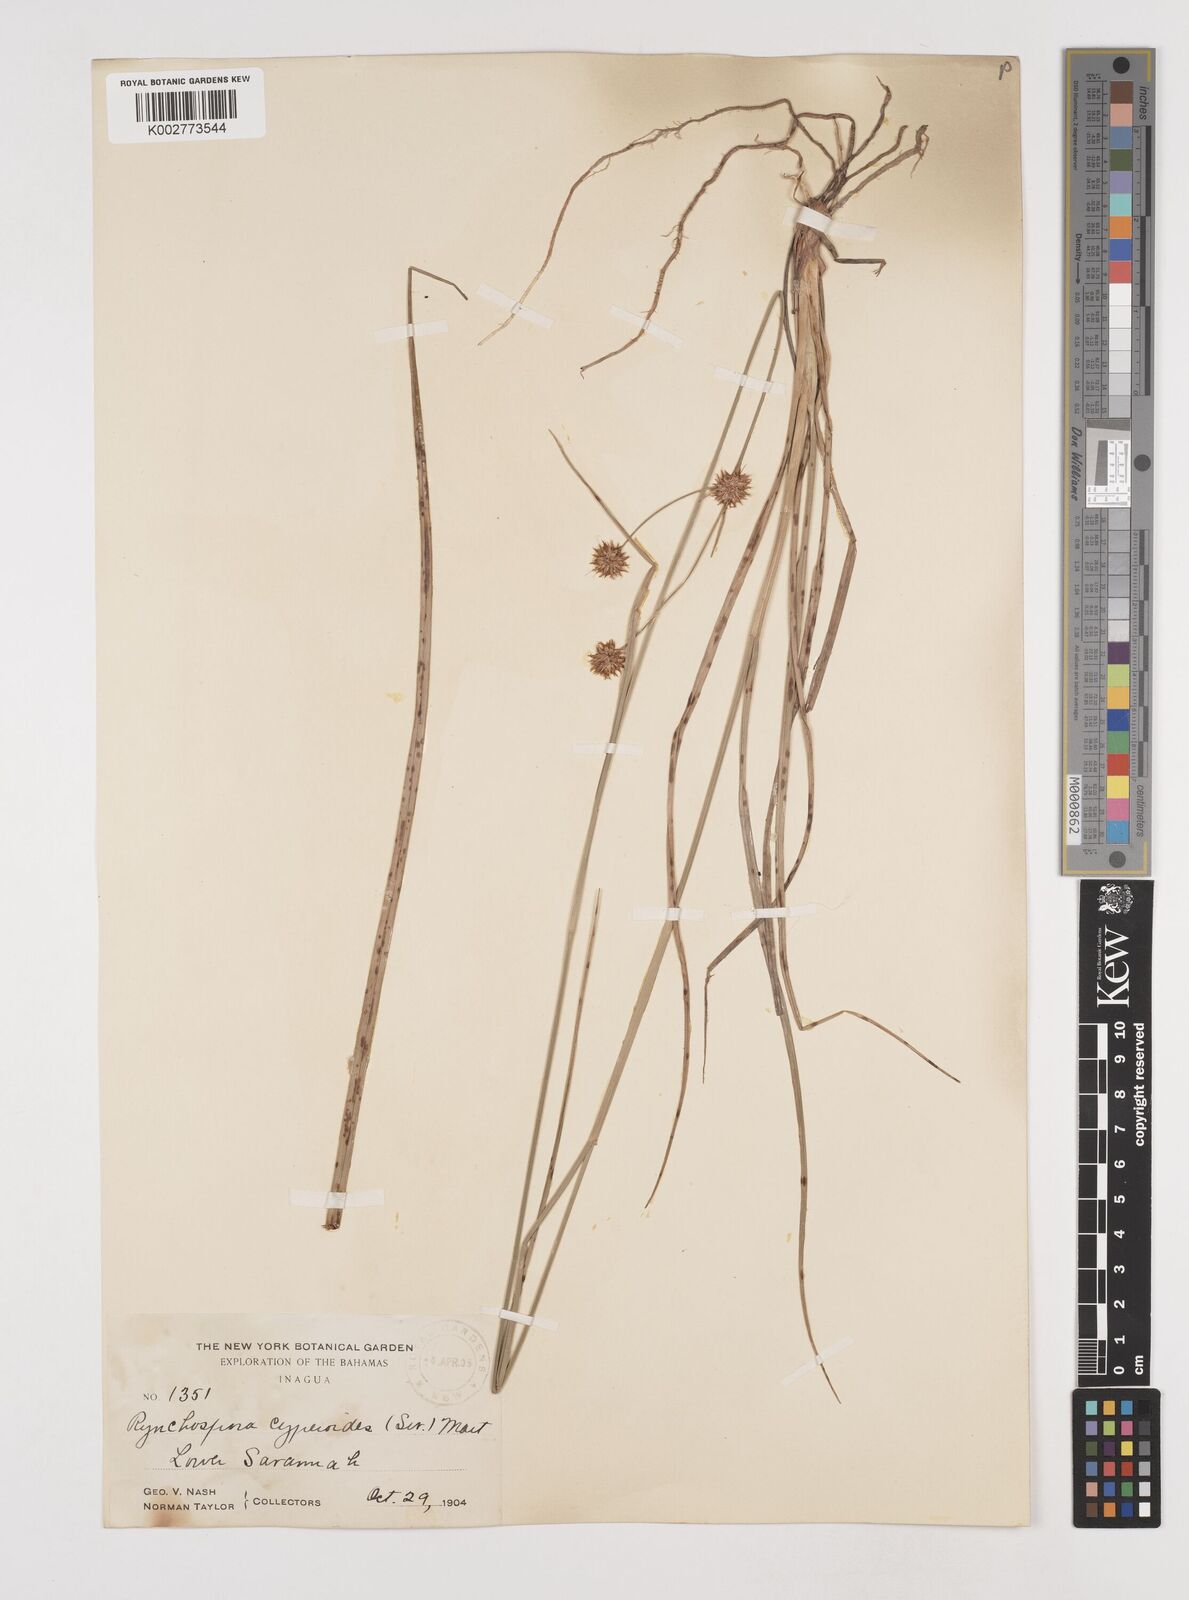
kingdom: Plantae
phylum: Tracheophyta
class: Liliopsida
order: Poales
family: Cyperaceae
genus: Rhynchospora
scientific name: Rhynchospora holoschoenoides
